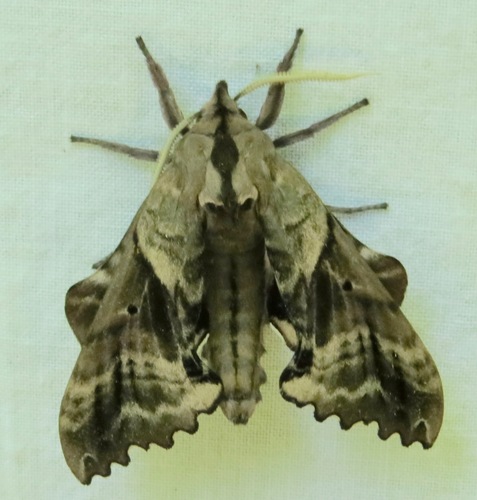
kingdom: Animalia
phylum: Arthropoda
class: Insecta
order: Lepidoptera
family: Sphingidae
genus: Paonias
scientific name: Paonias excaecata
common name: Blind-eyed sphinx
